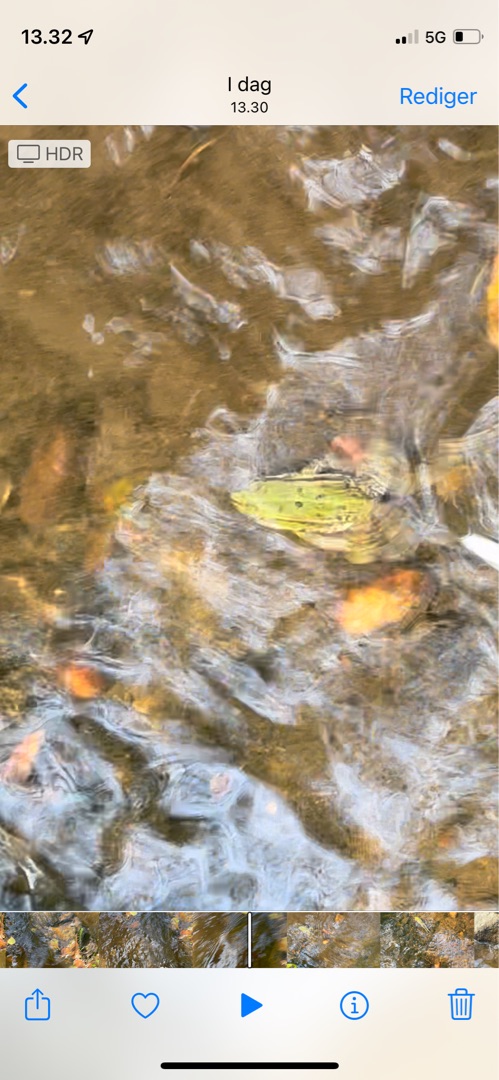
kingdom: Animalia
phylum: Chordata
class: Amphibia
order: Anura
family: Ranidae
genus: Pelophylax
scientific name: Pelophylax lessonae
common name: Grøn frø
